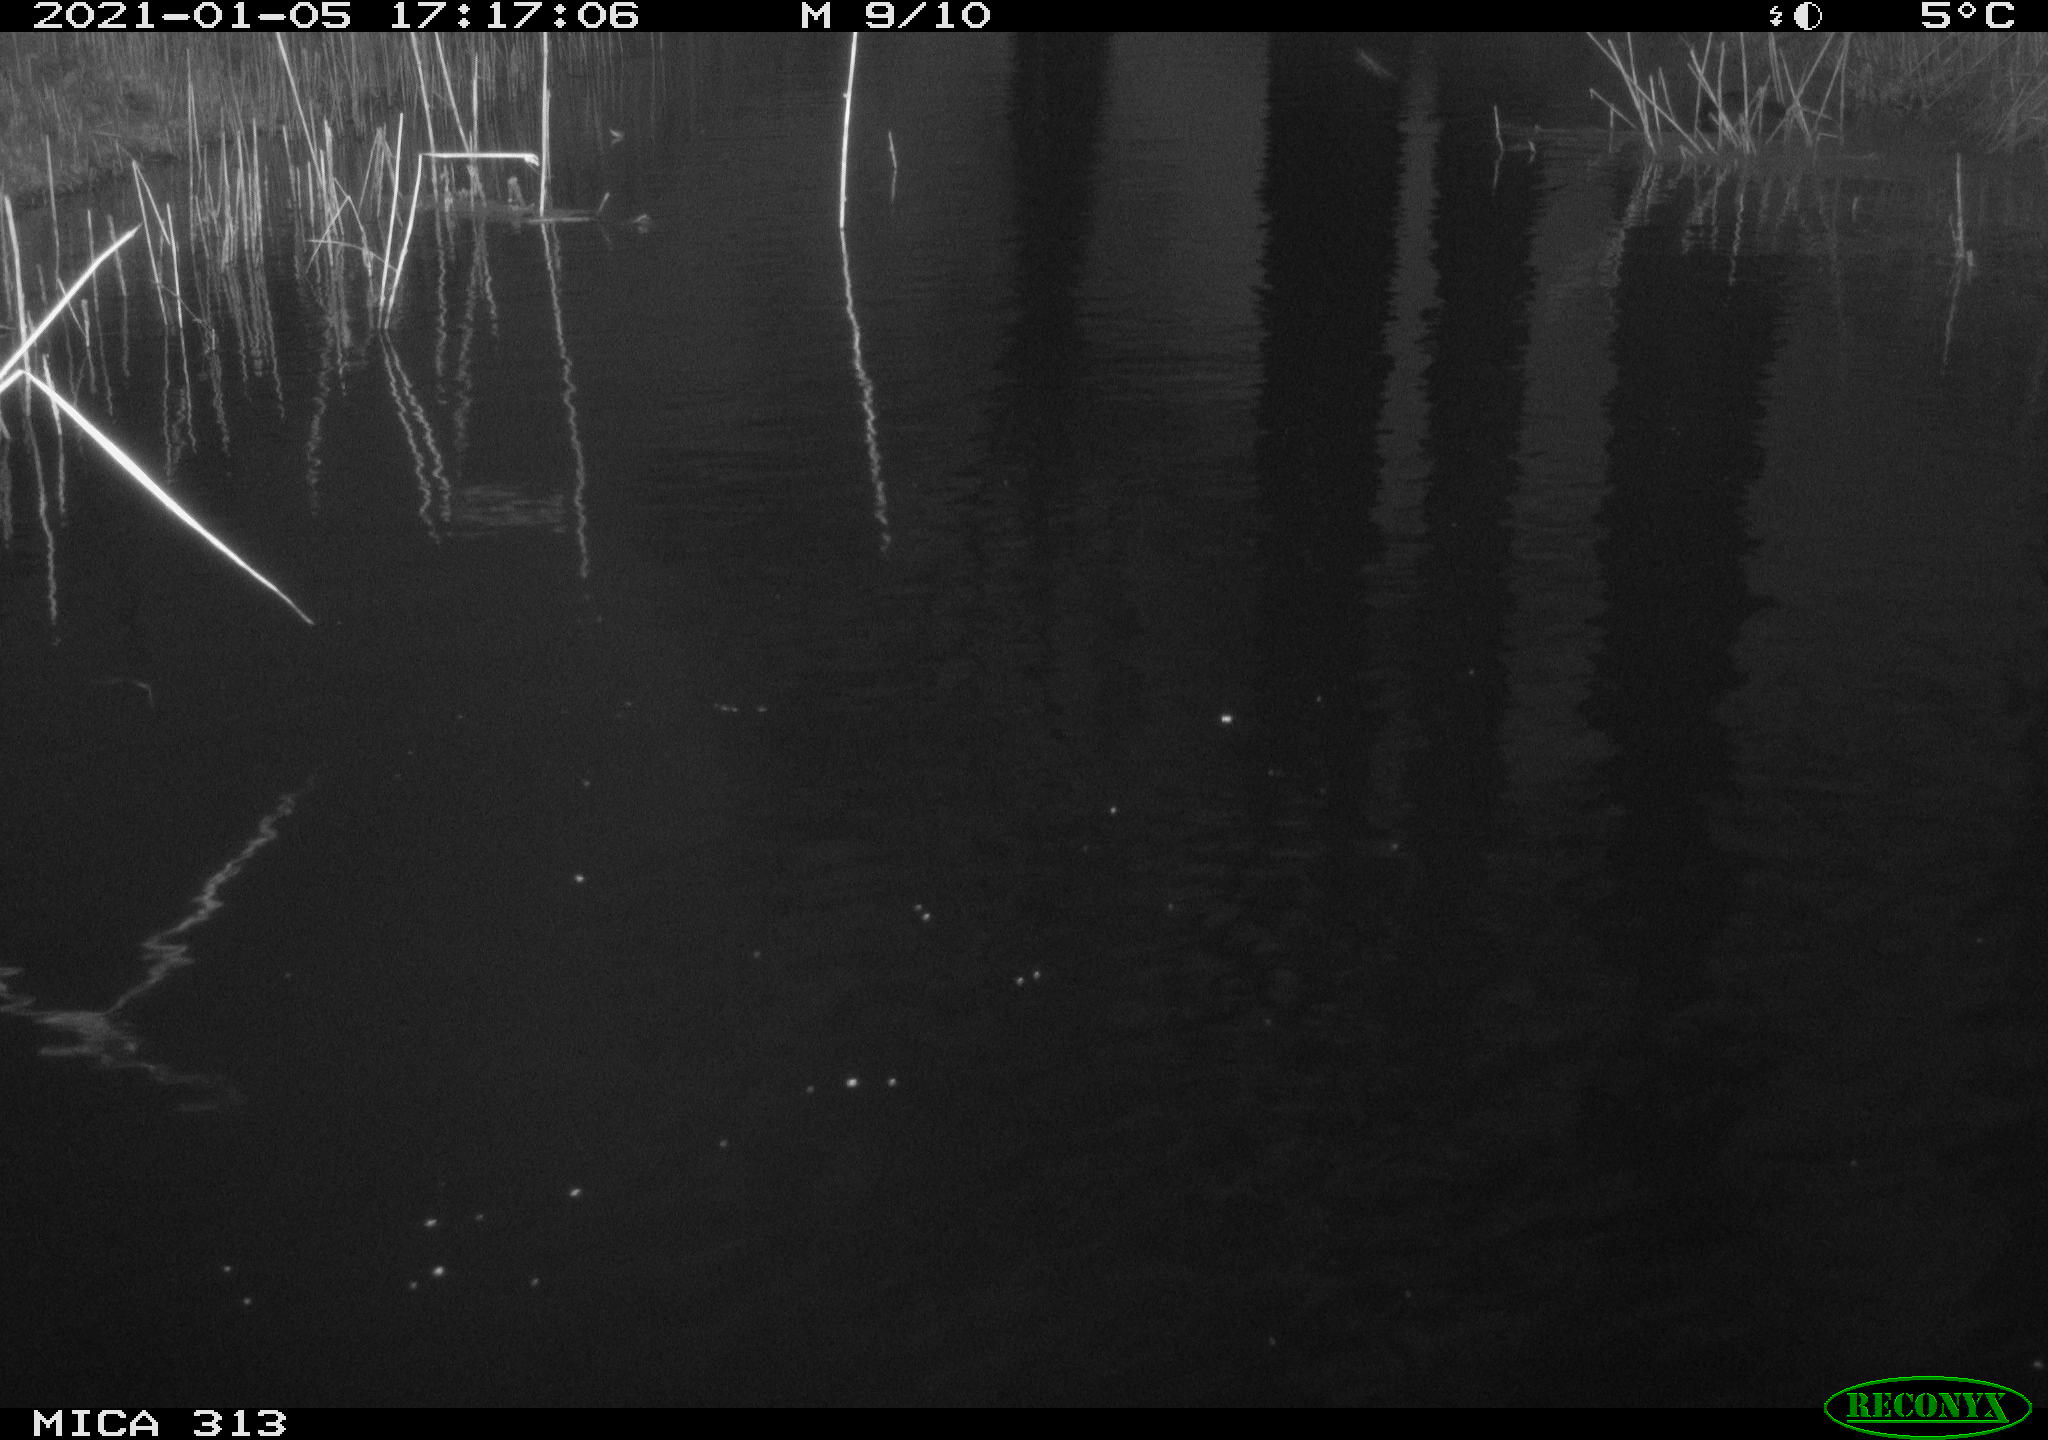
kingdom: Animalia
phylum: Chordata
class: Aves
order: Gruiformes
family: Rallidae
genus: Gallinula
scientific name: Gallinula chloropus
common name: Common moorhen
